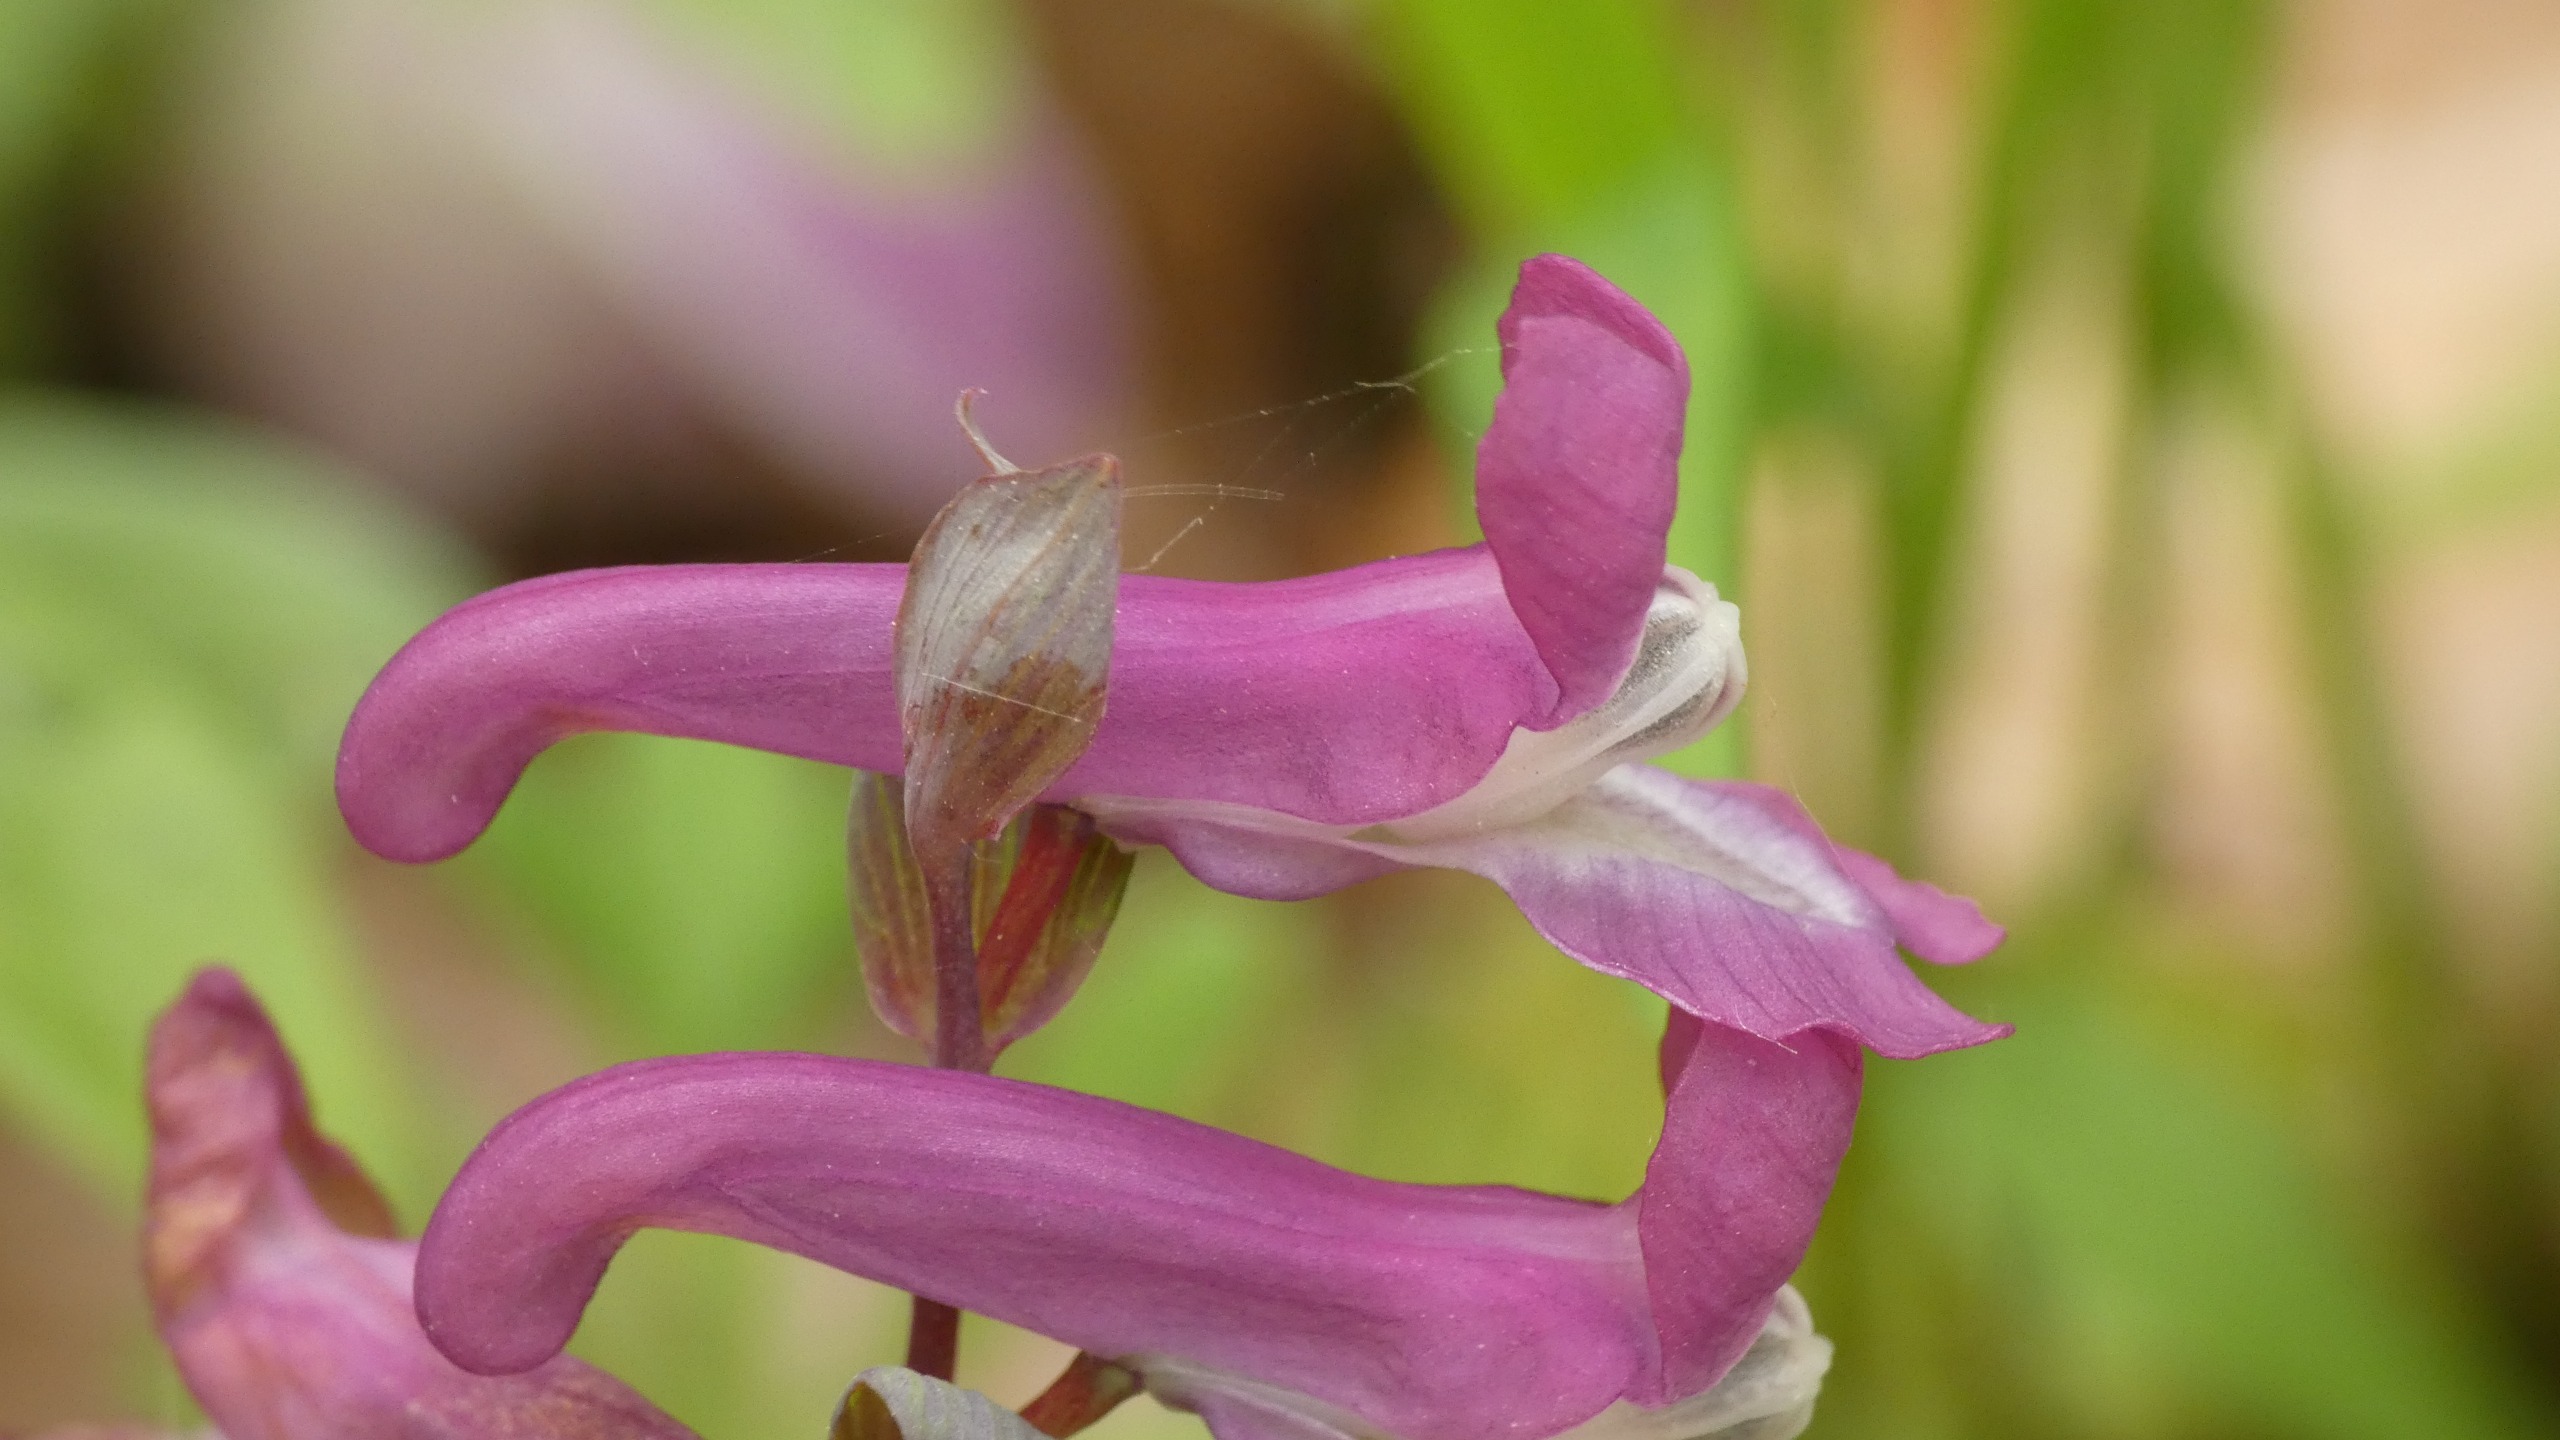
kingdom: Plantae
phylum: Tracheophyta
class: Magnoliopsida
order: Ranunculales
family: Papaveraceae
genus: Corydalis
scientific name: Corydalis cava
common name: Hulrodet lærkespore
